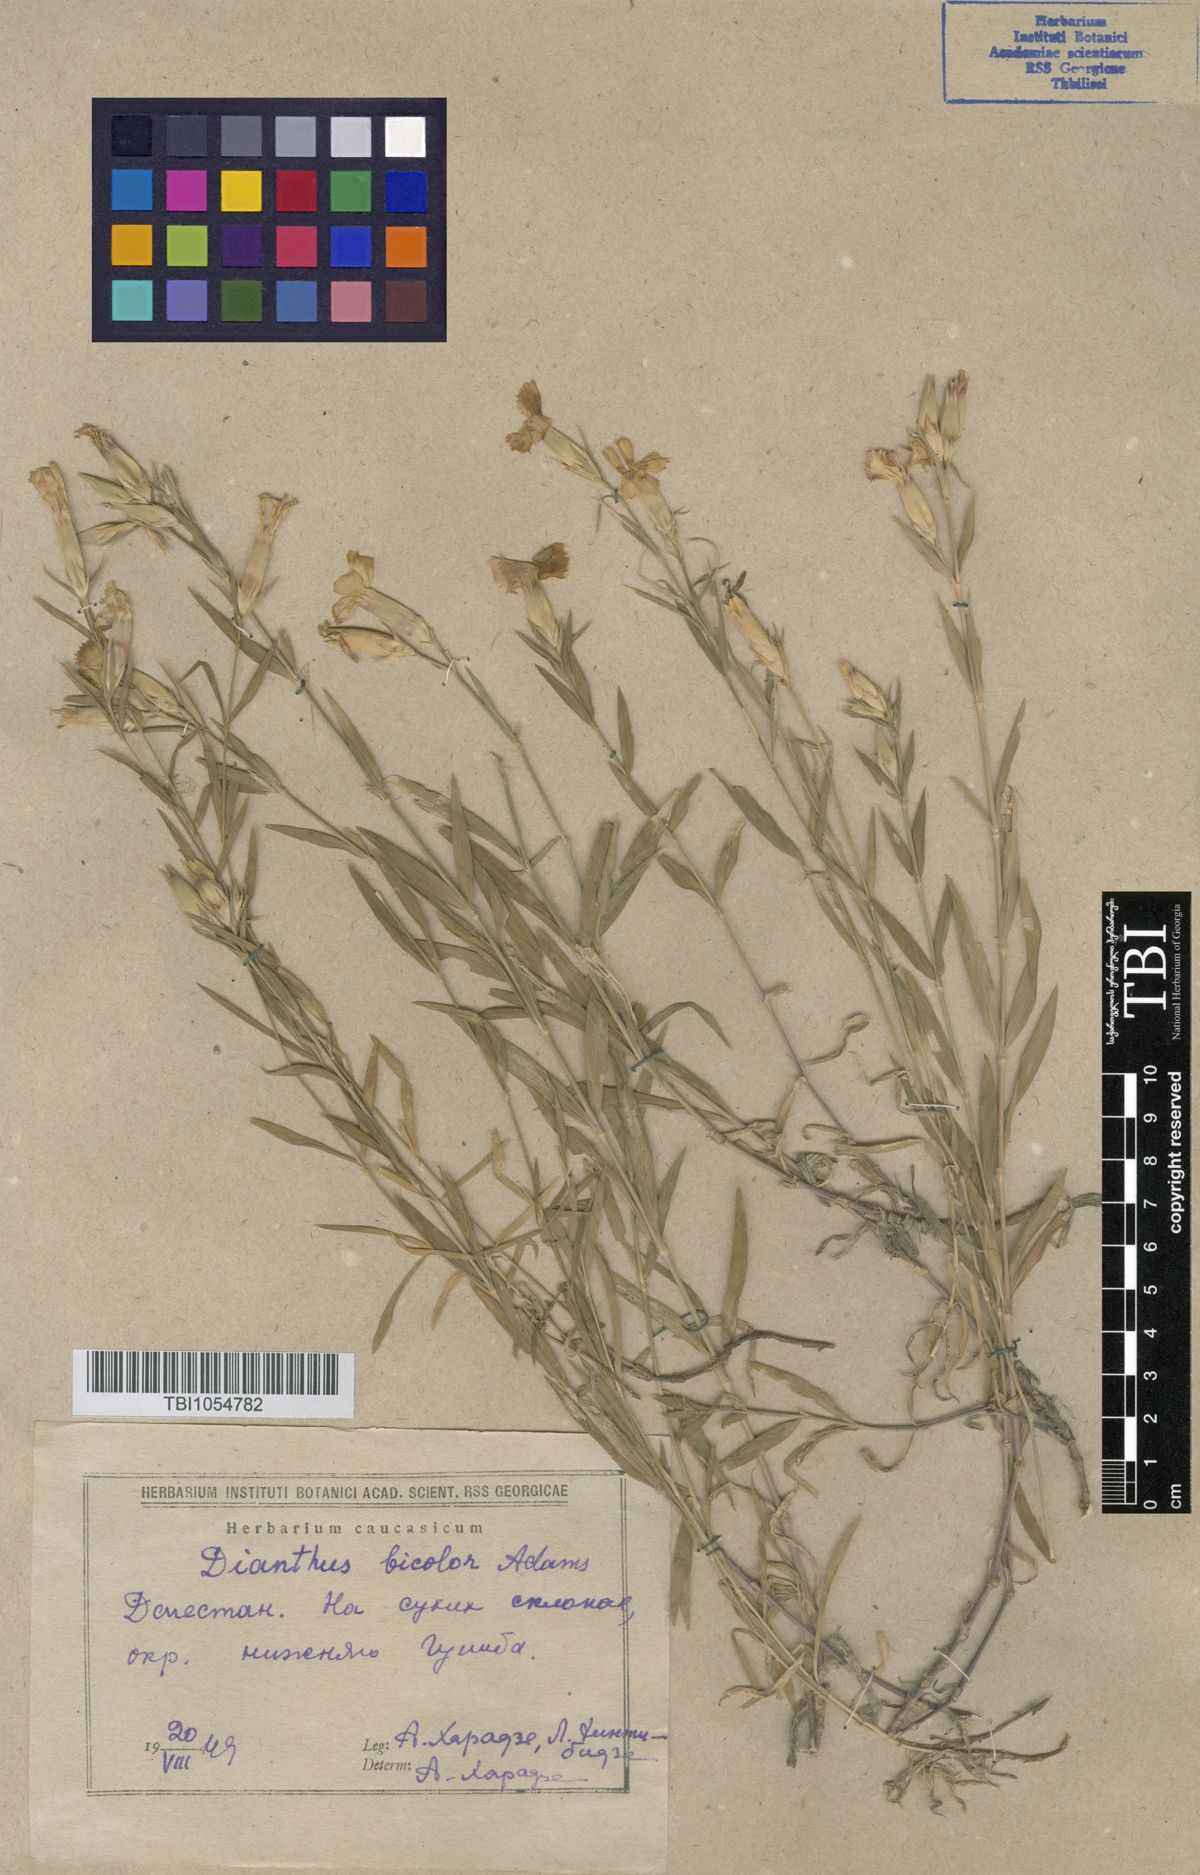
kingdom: Plantae
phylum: Tracheophyta
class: Magnoliopsida
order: Caryophyllales
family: Caryophyllaceae
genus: Dianthus
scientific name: Dianthus marschallii
